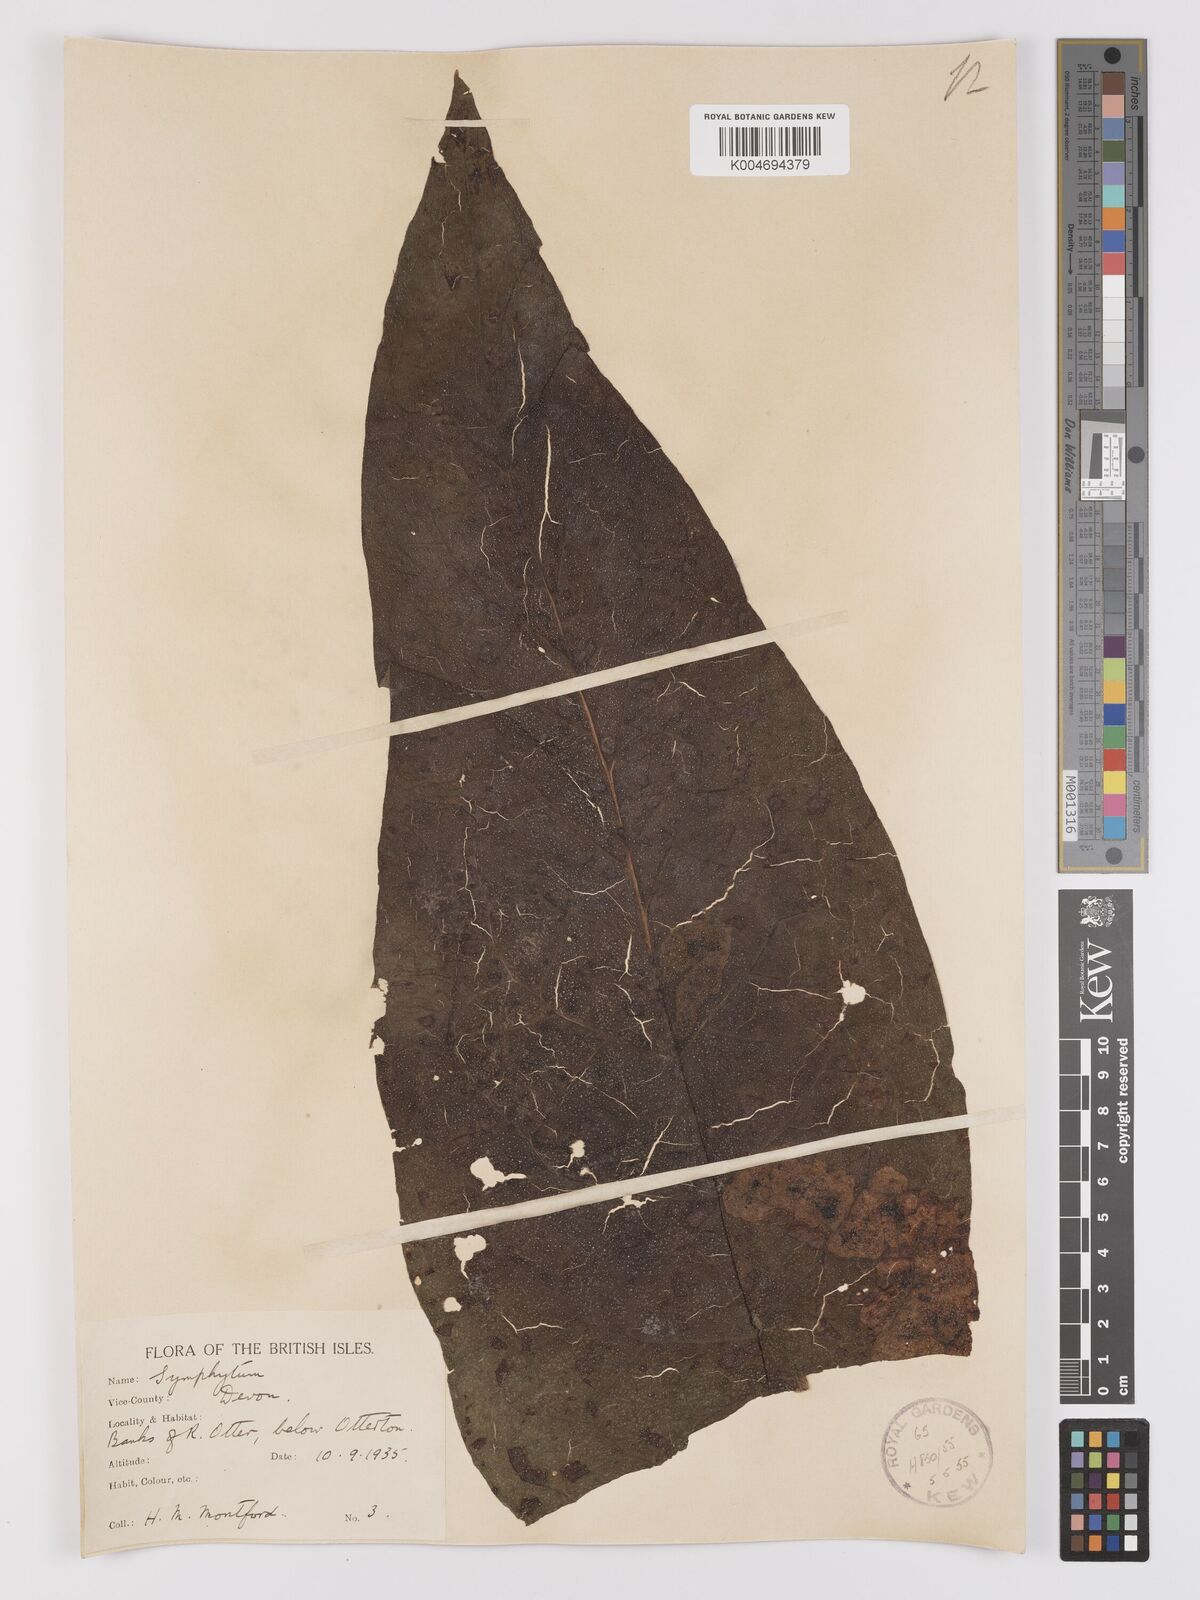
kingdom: Plantae
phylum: Tracheophyta
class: Magnoliopsida
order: Boraginales
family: Boraginaceae
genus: Symphytum
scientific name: Symphytum officinale
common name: Common comfrey
